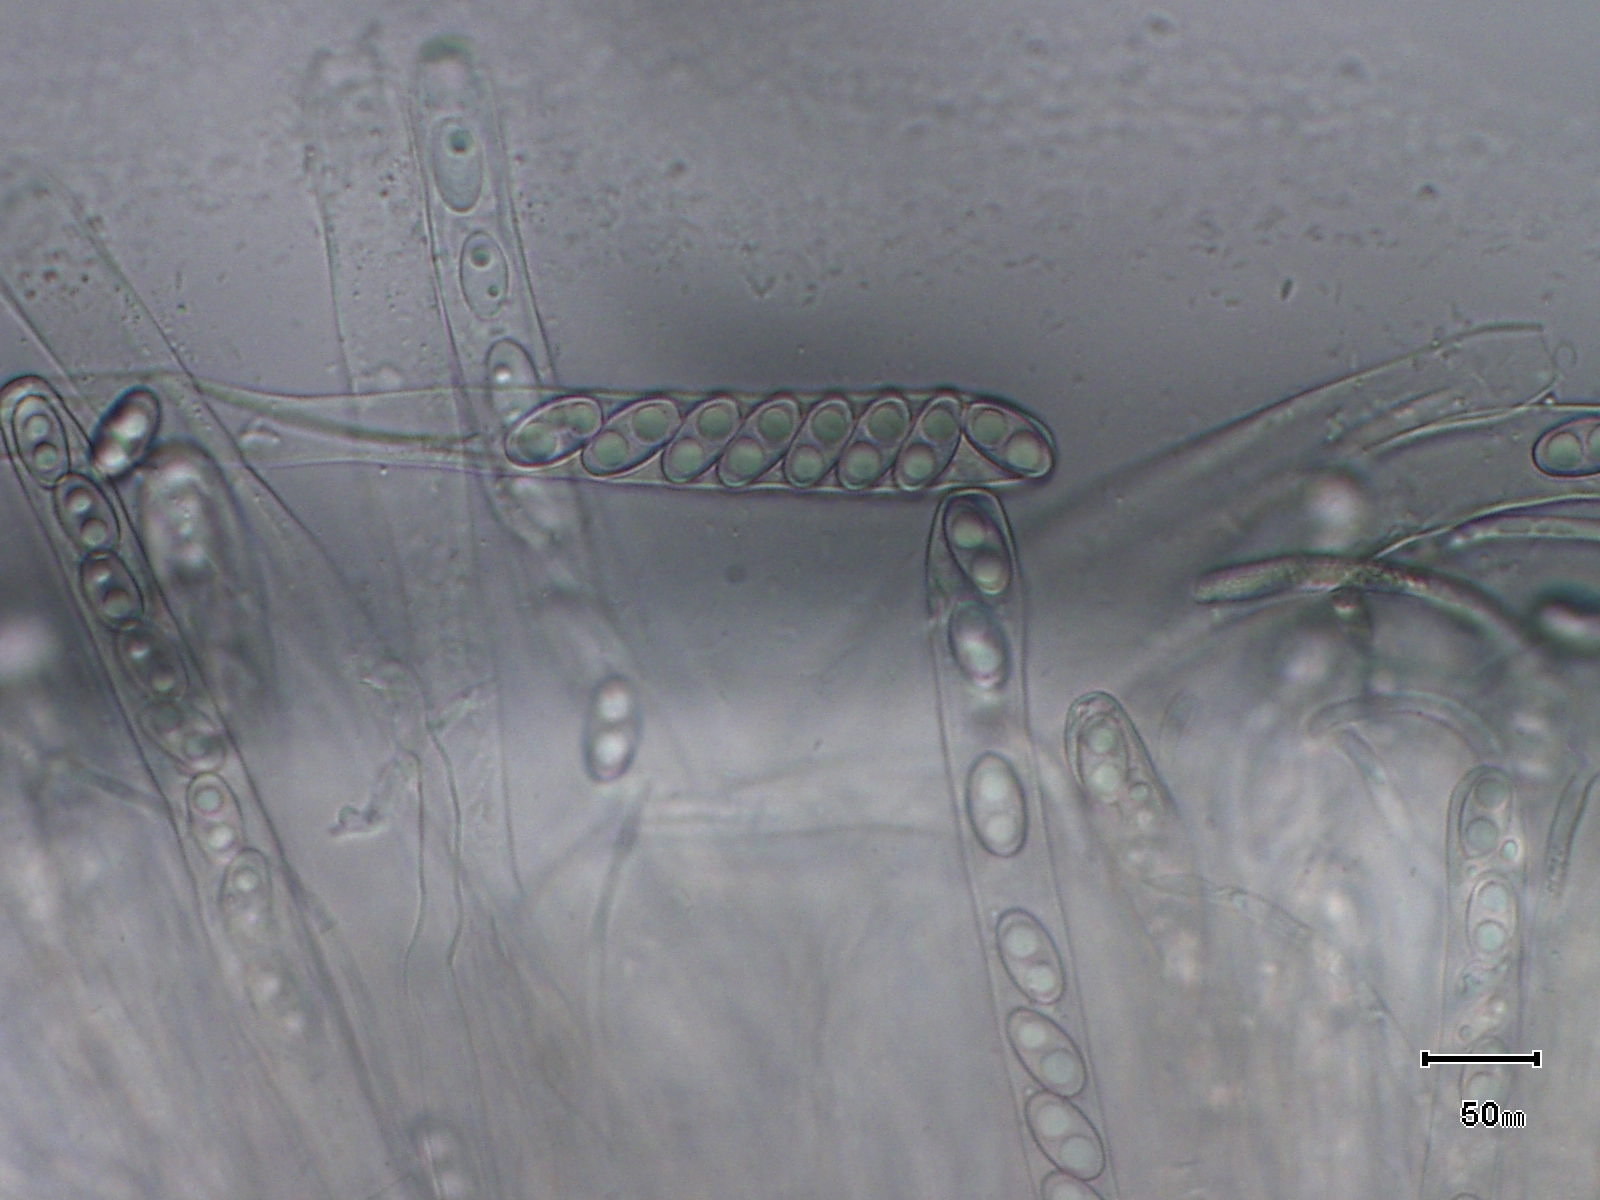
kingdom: Fungi
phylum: Ascomycota
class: Pezizomycetes
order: Pezizales
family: Otideaceae
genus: Otidea
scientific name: Otidea onotica
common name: æsel-ørebæger
